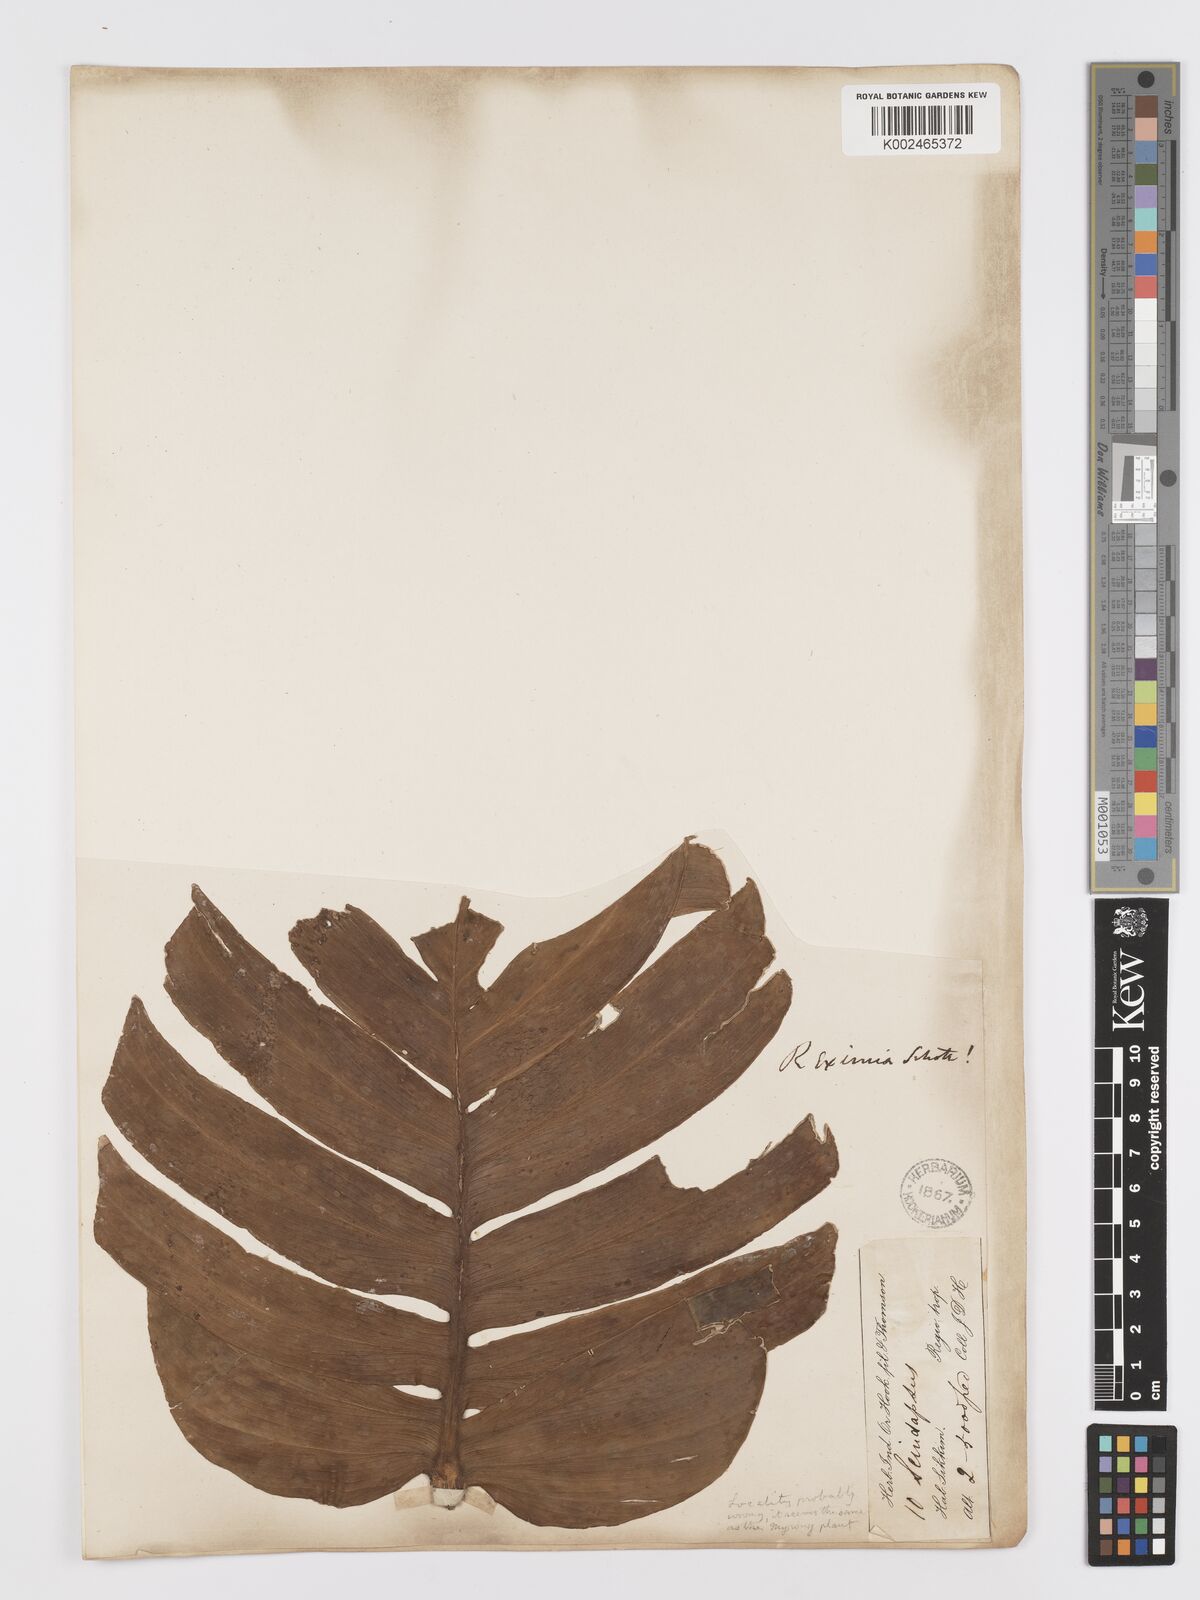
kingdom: Plantae
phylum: Tracheophyta
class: Liliopsida
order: Alismatales
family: Araceae
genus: Rhaphidophora
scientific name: Rhaphidophora decursiva
